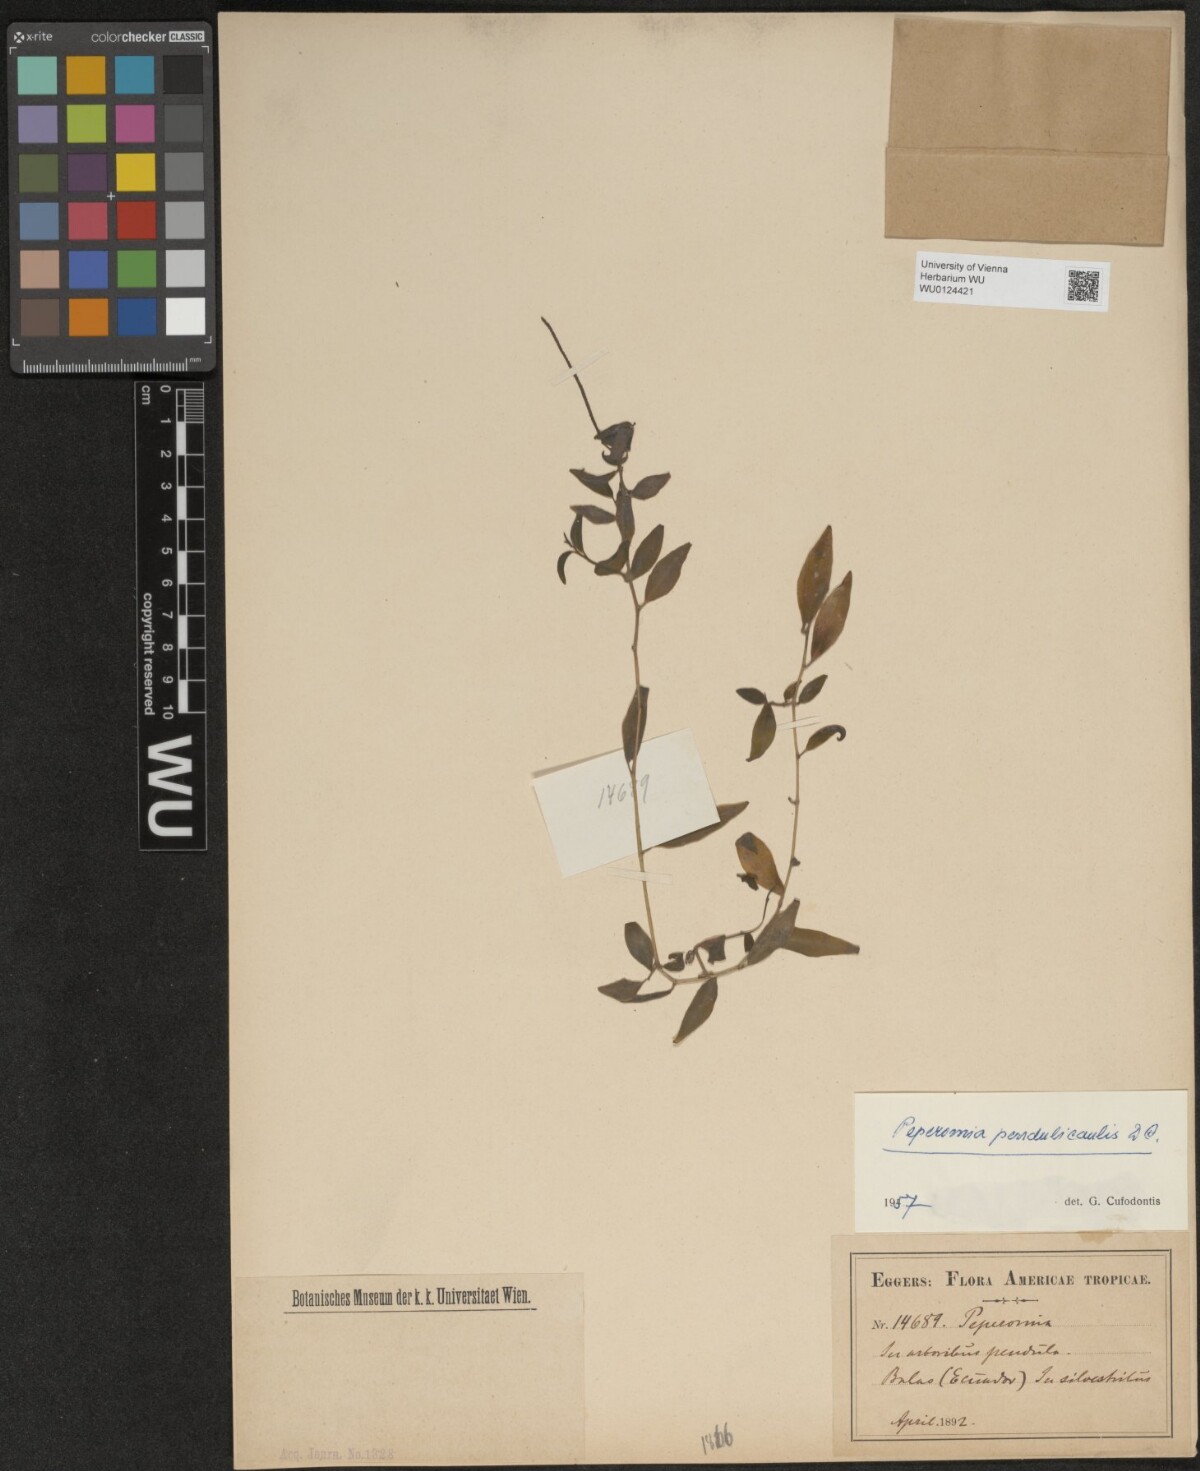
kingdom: Plantae
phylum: Tracheophyta
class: Magnoliopsida
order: Piperales
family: Piperaceae
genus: Peperomia
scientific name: Peperomia pendulicaulis
